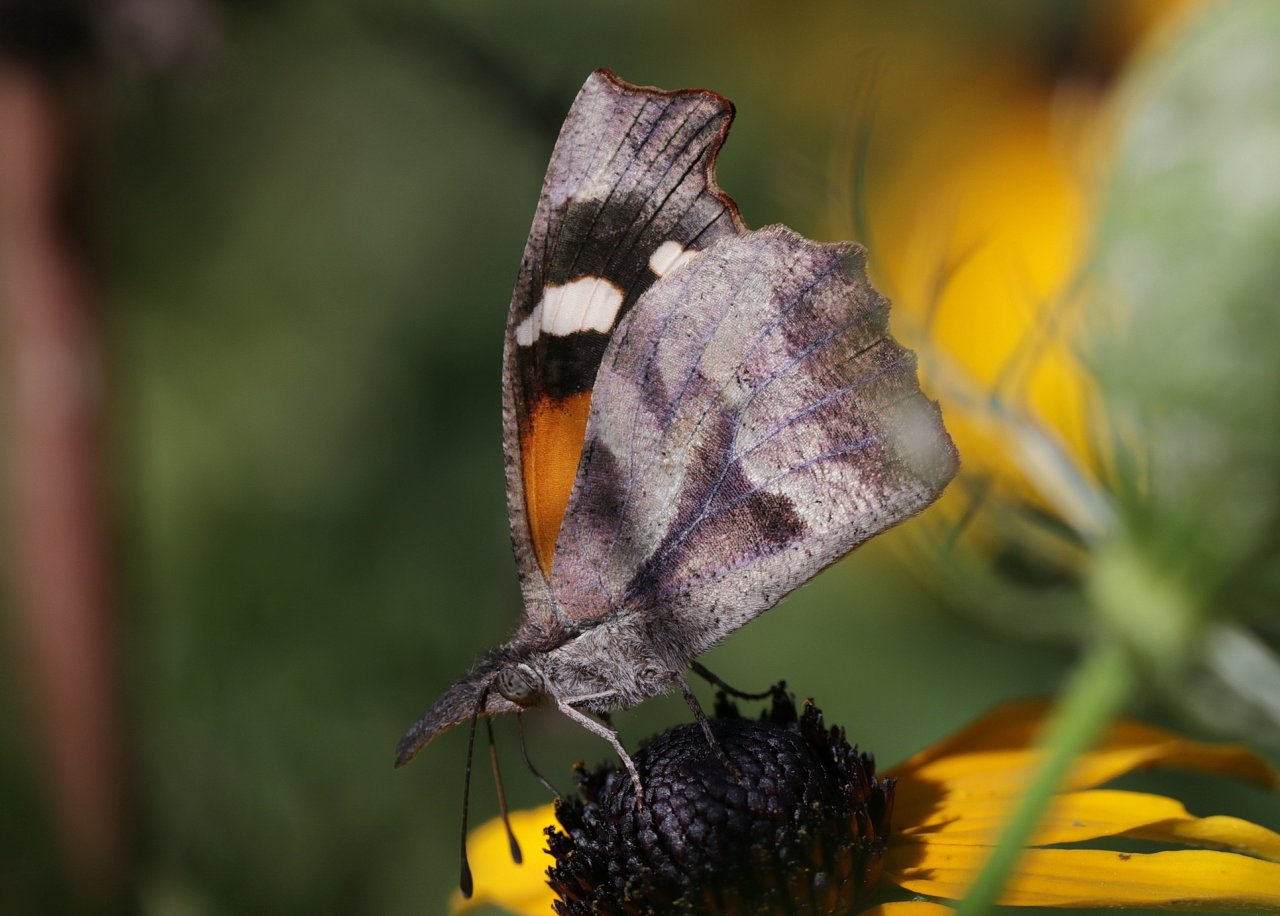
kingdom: Animalia
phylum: Arthropoda
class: Insecta
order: Lepidoptera
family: Nymphalidae
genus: Libytheana
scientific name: Libytheana carinenta
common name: American Snout
